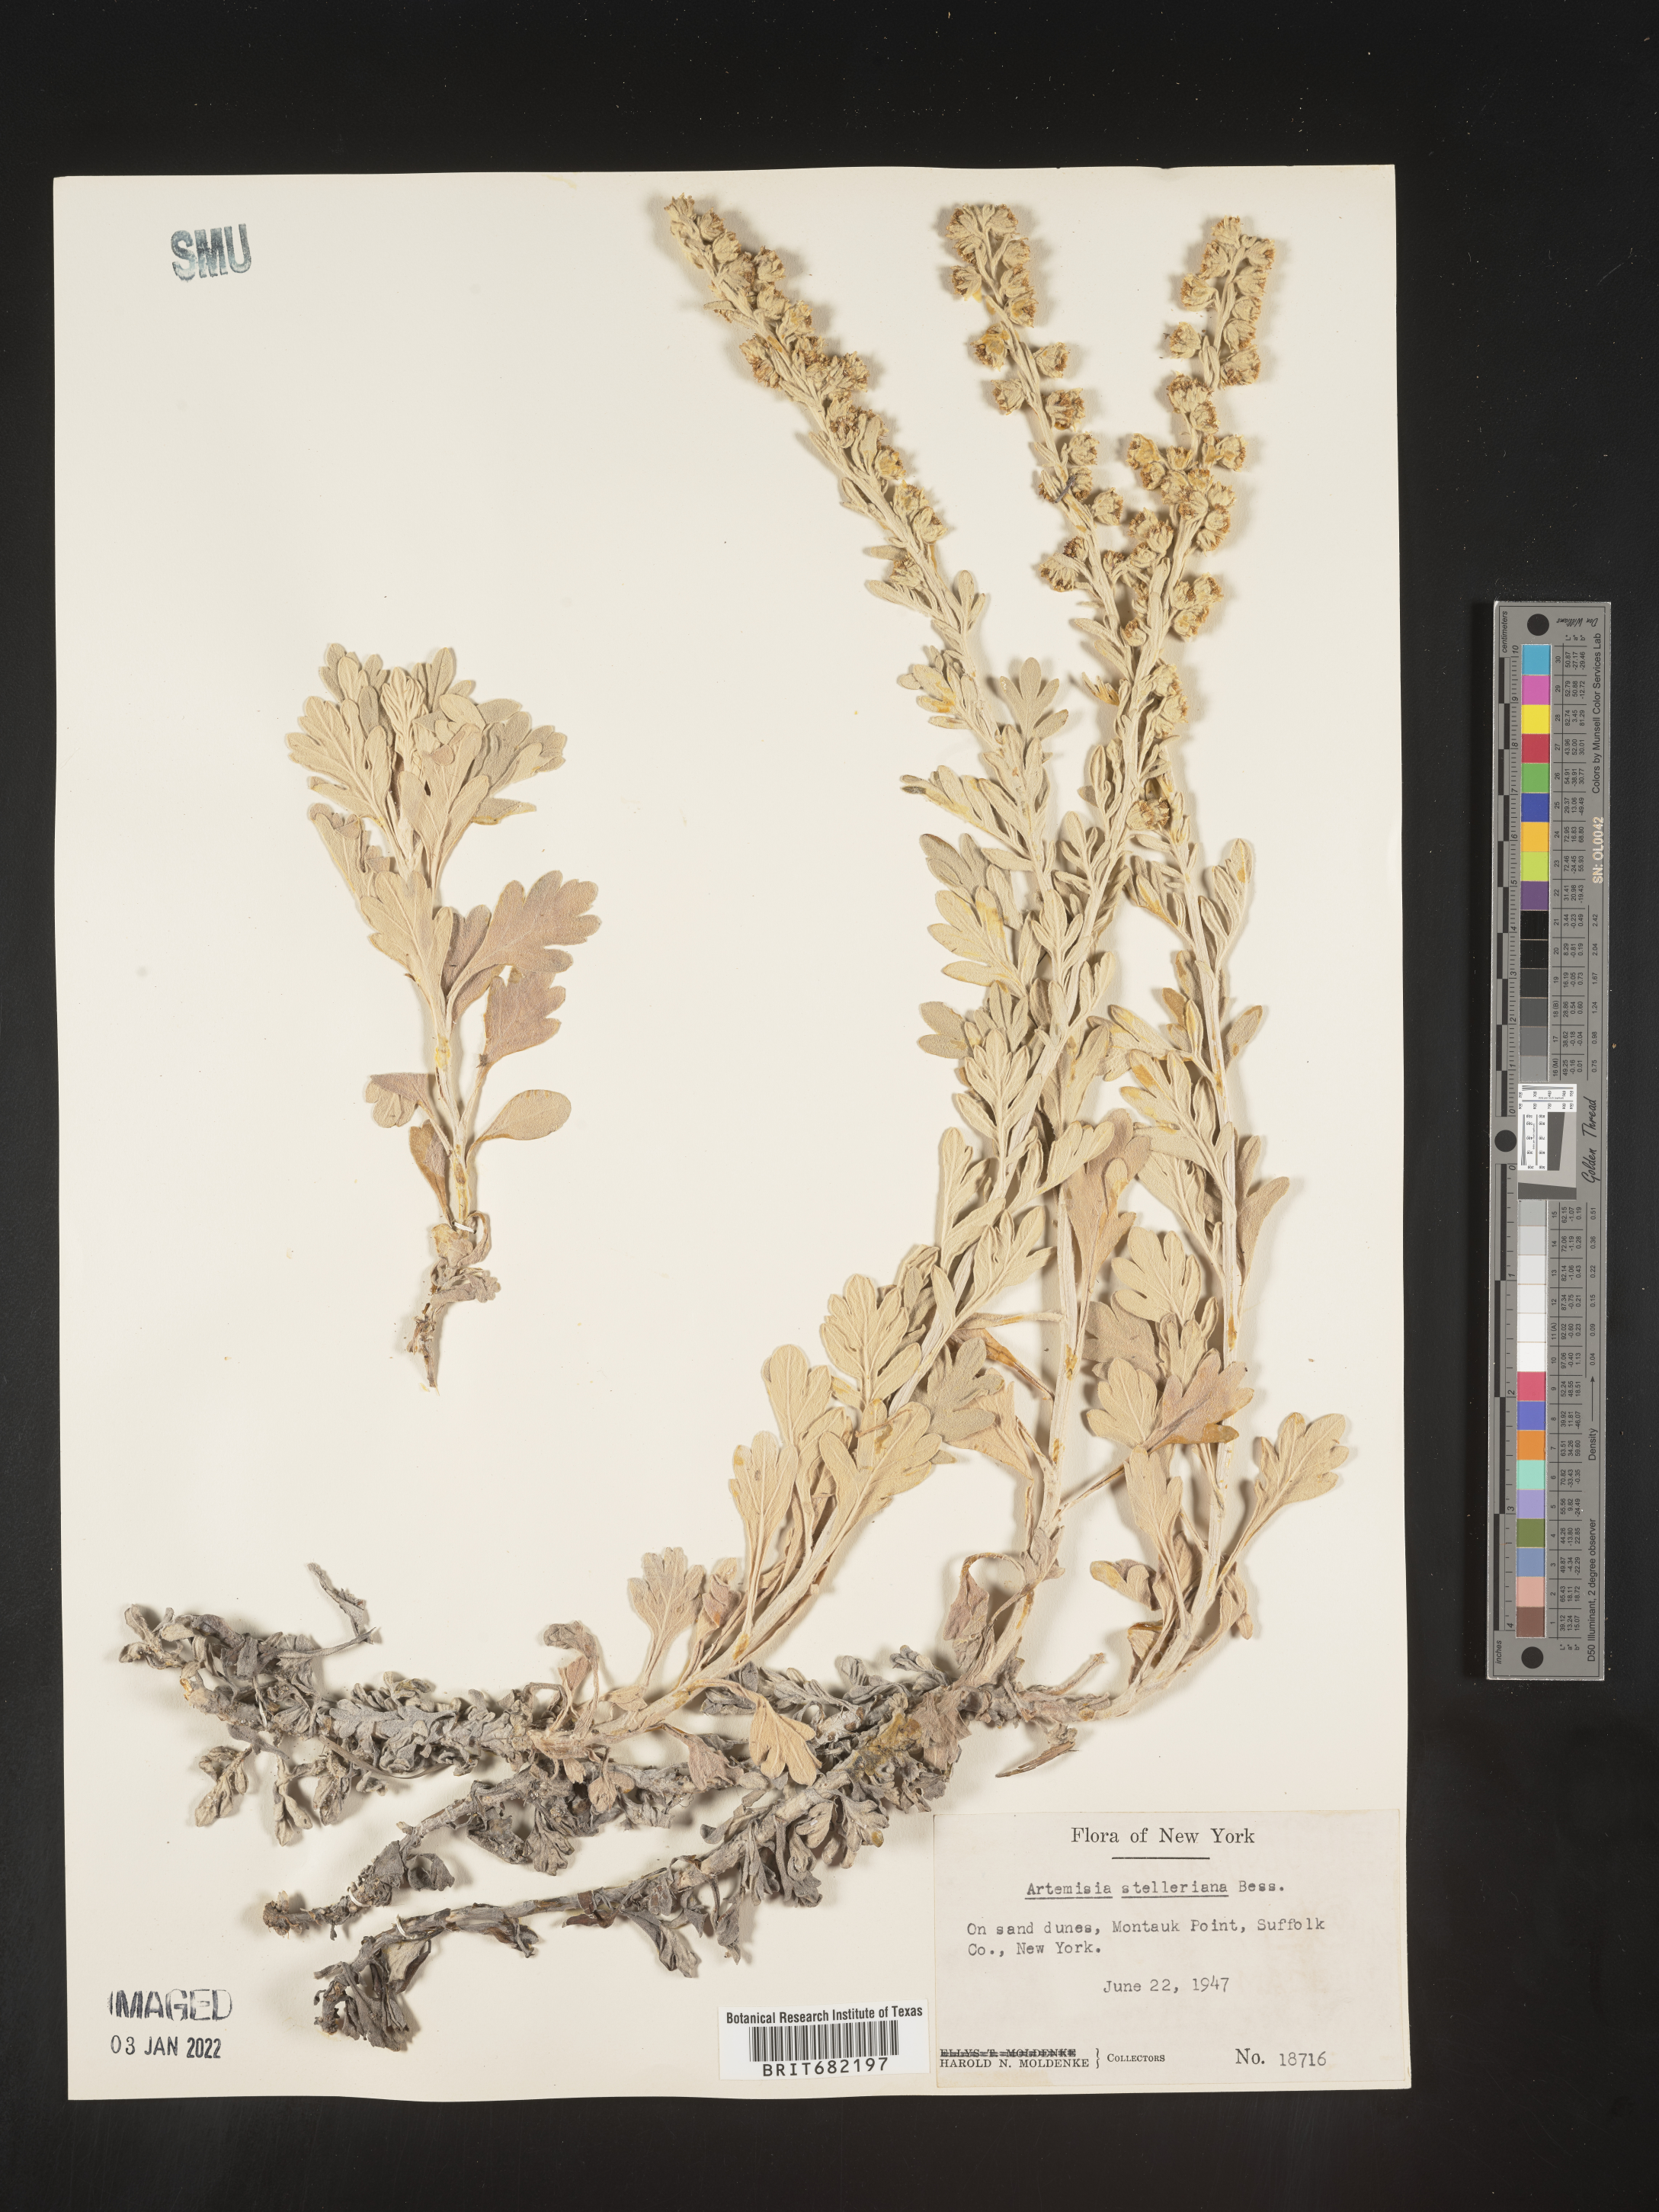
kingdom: Plantae
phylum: Tracheophyta
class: Magnoliopsida
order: Asterales
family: Asteraceae
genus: Artemisia
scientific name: Artemisia stelleriana
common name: Beach wormwood
